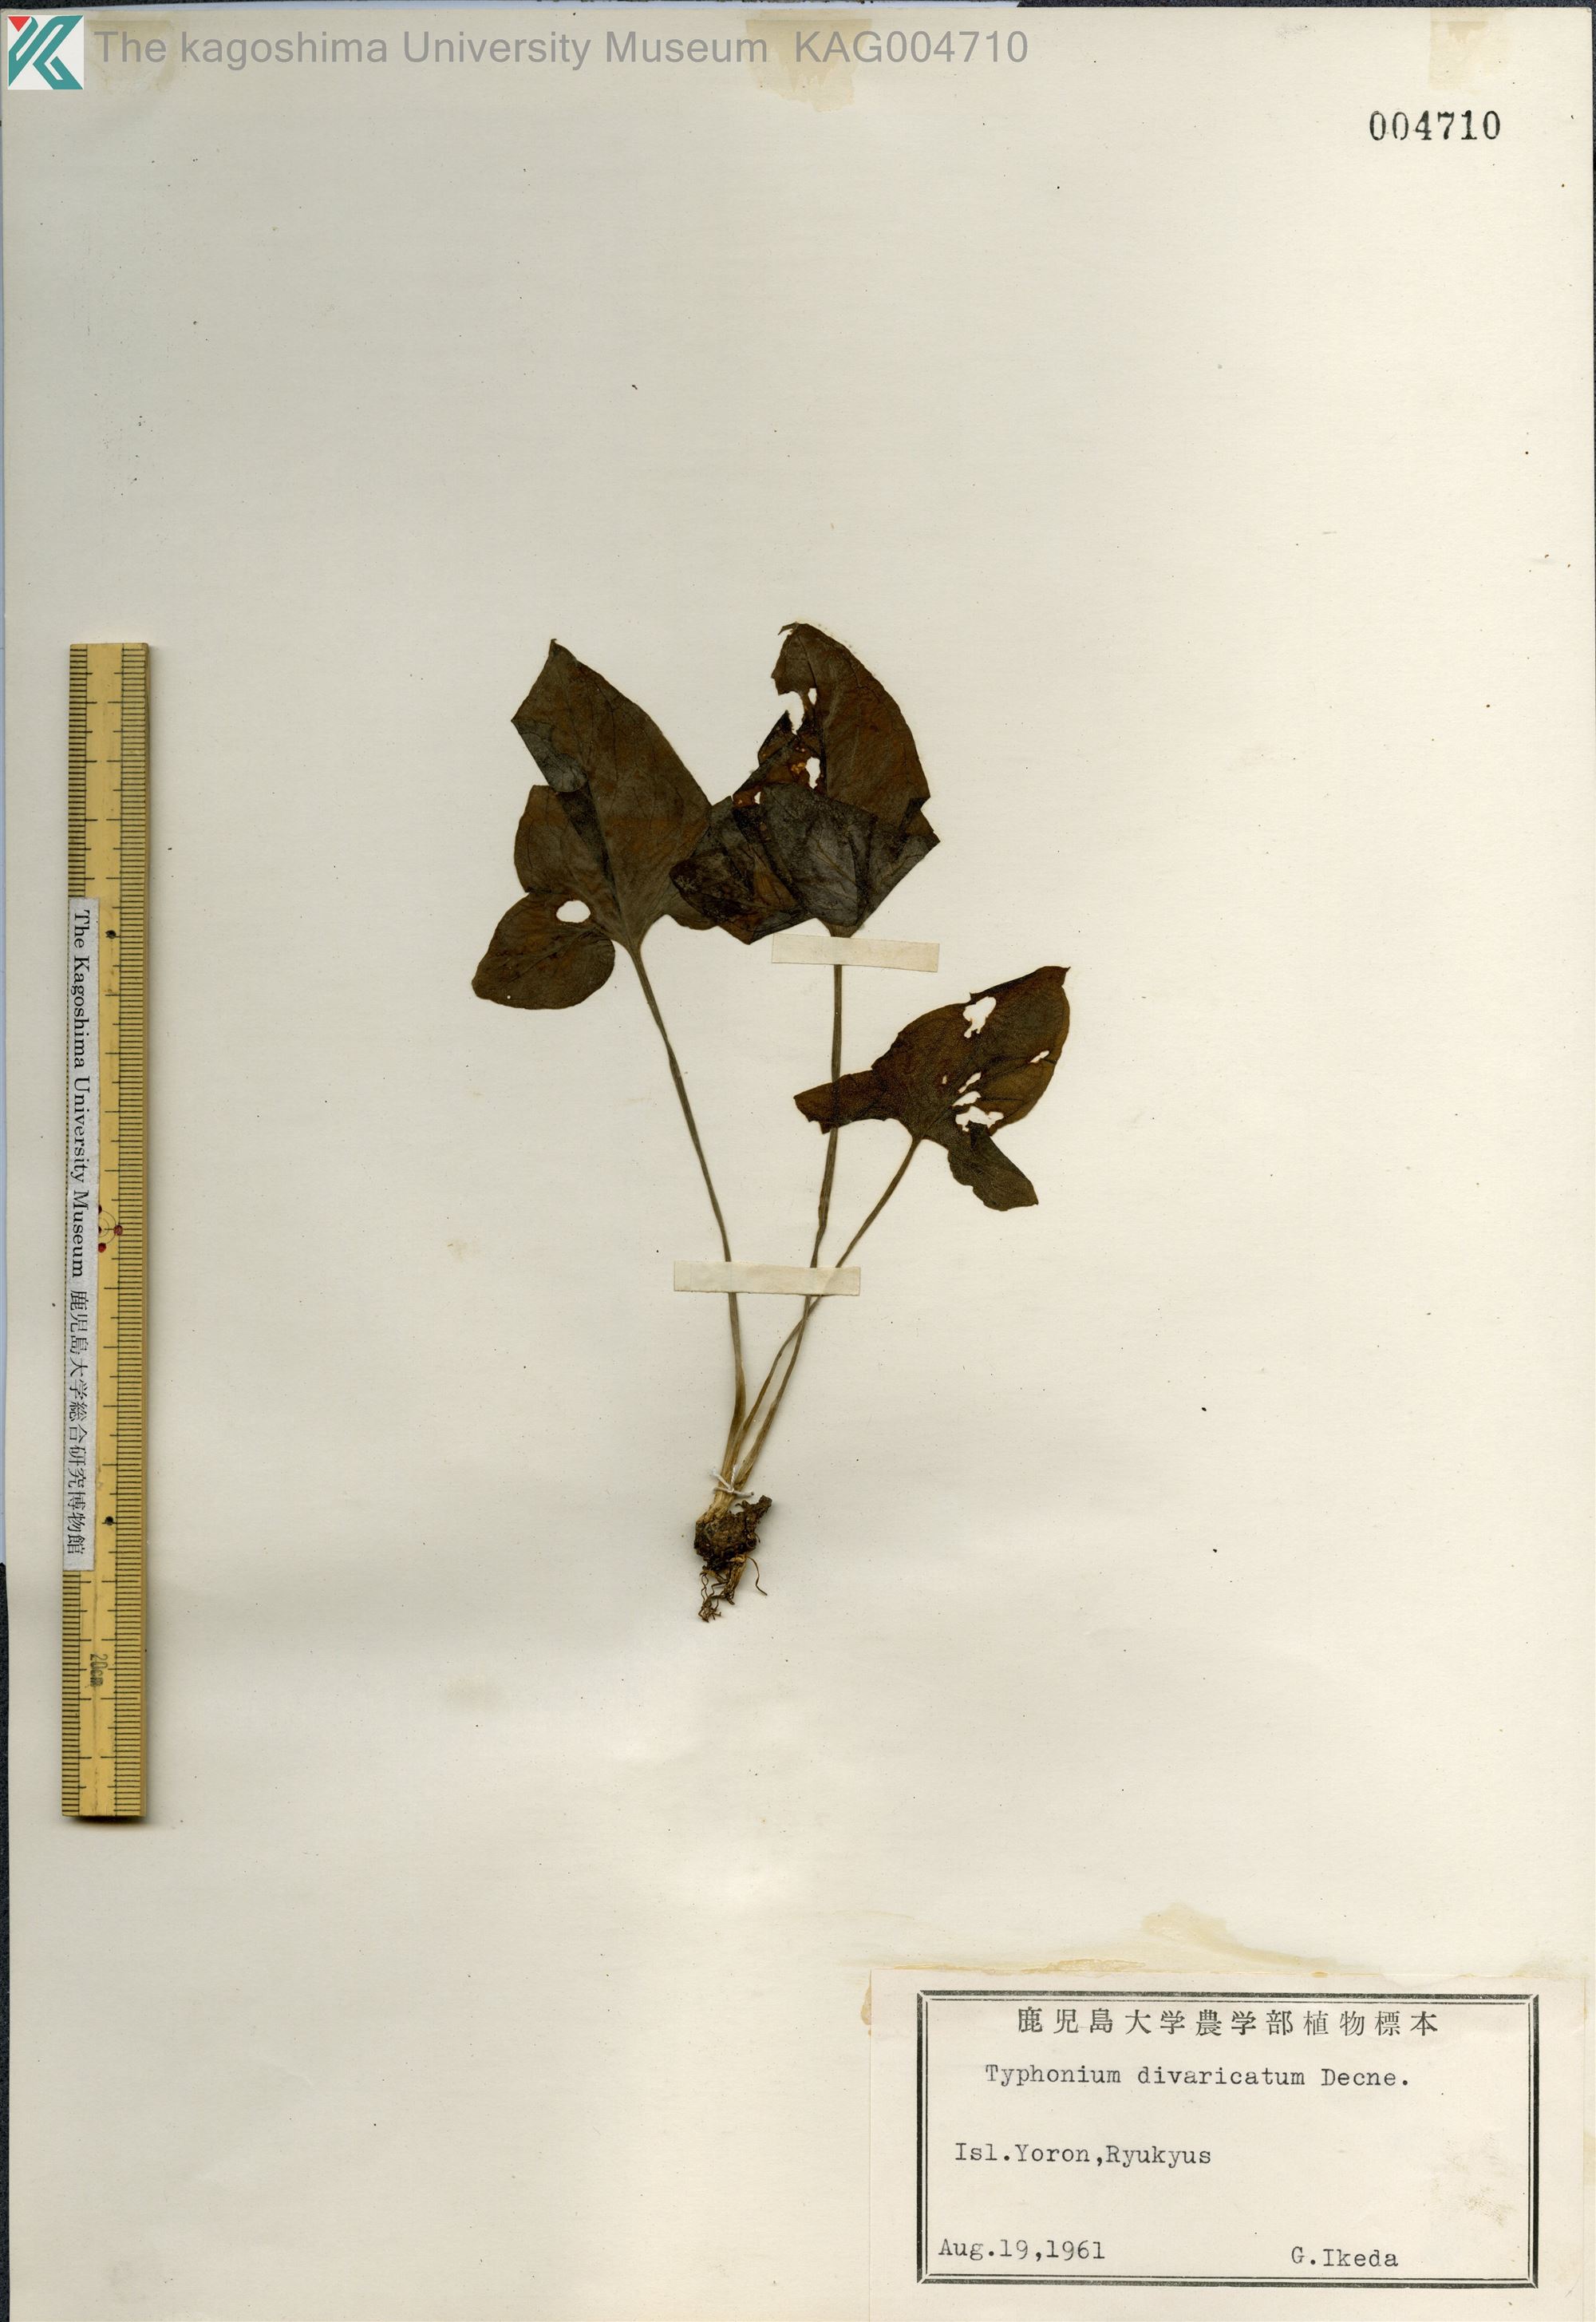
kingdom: Plantae
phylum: Tracheophyta
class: Liliopsida
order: Alismatales
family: Araceae
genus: Typhonium
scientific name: Typhonium
